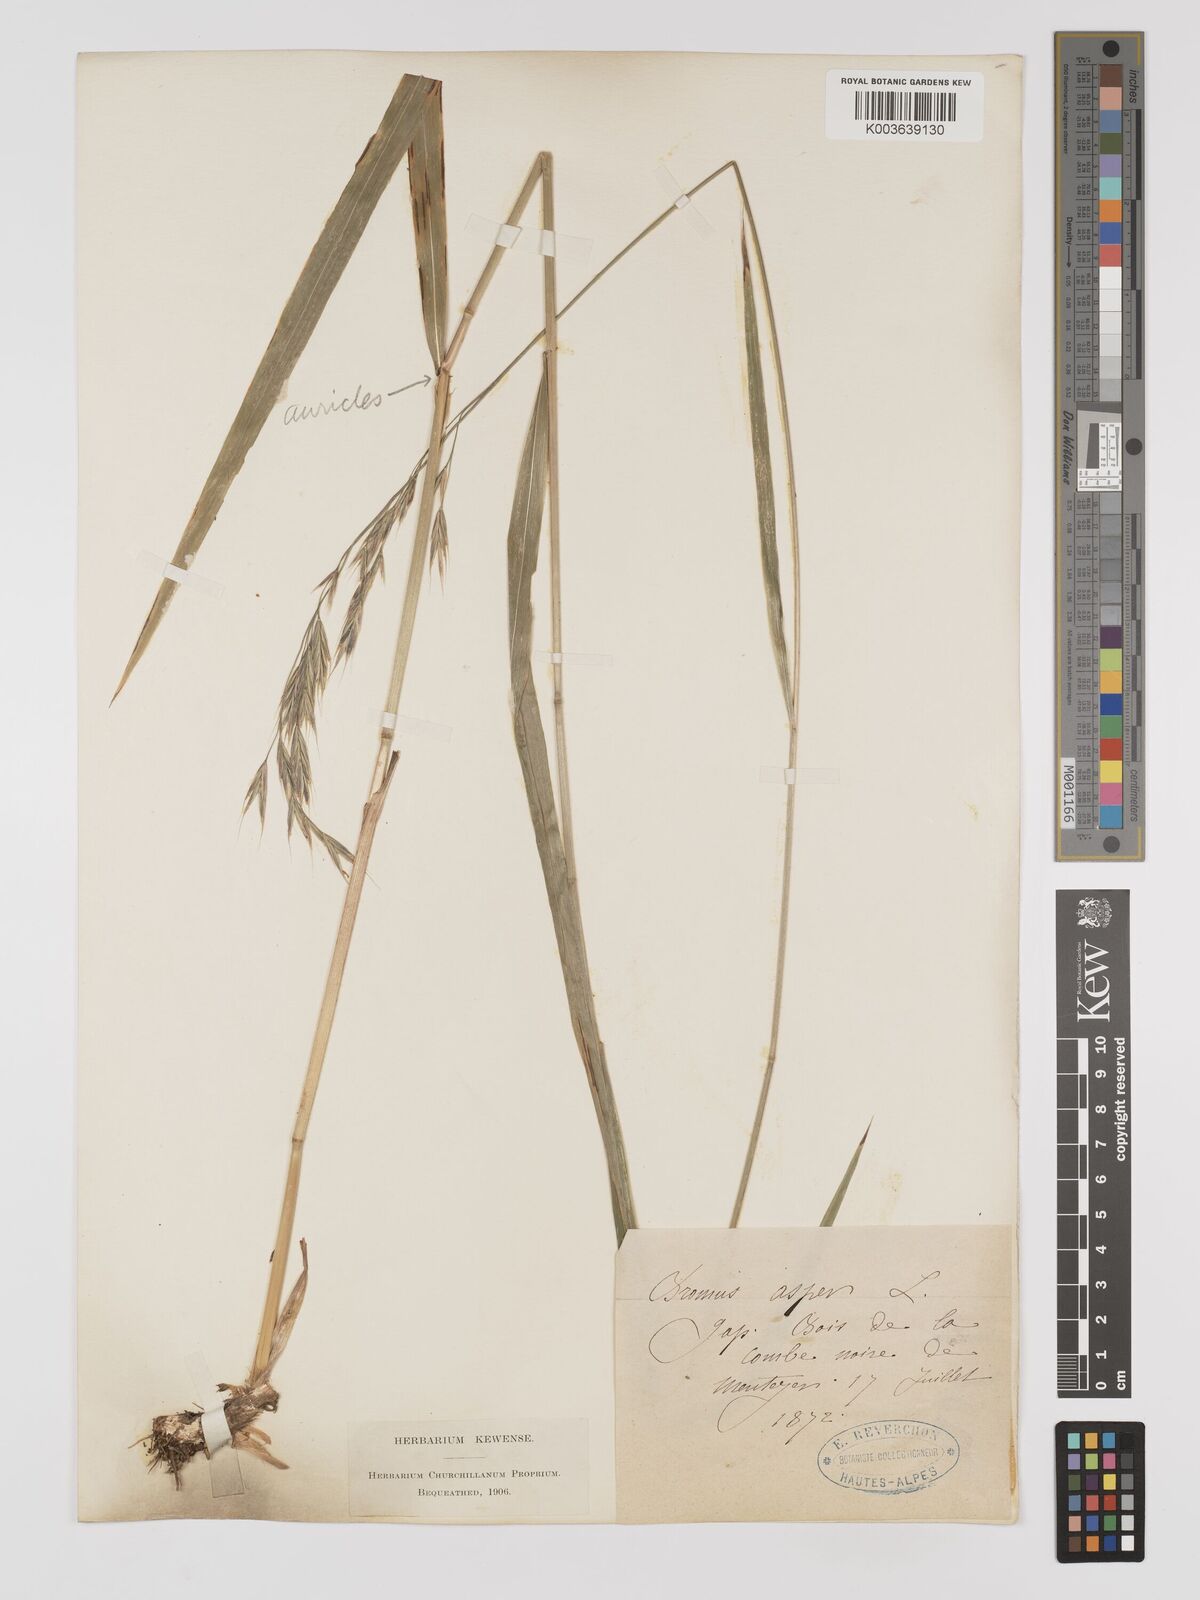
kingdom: Plantae
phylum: Tracheophyta
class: Liliopsida
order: Poales
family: Poaceae
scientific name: Poaceae
